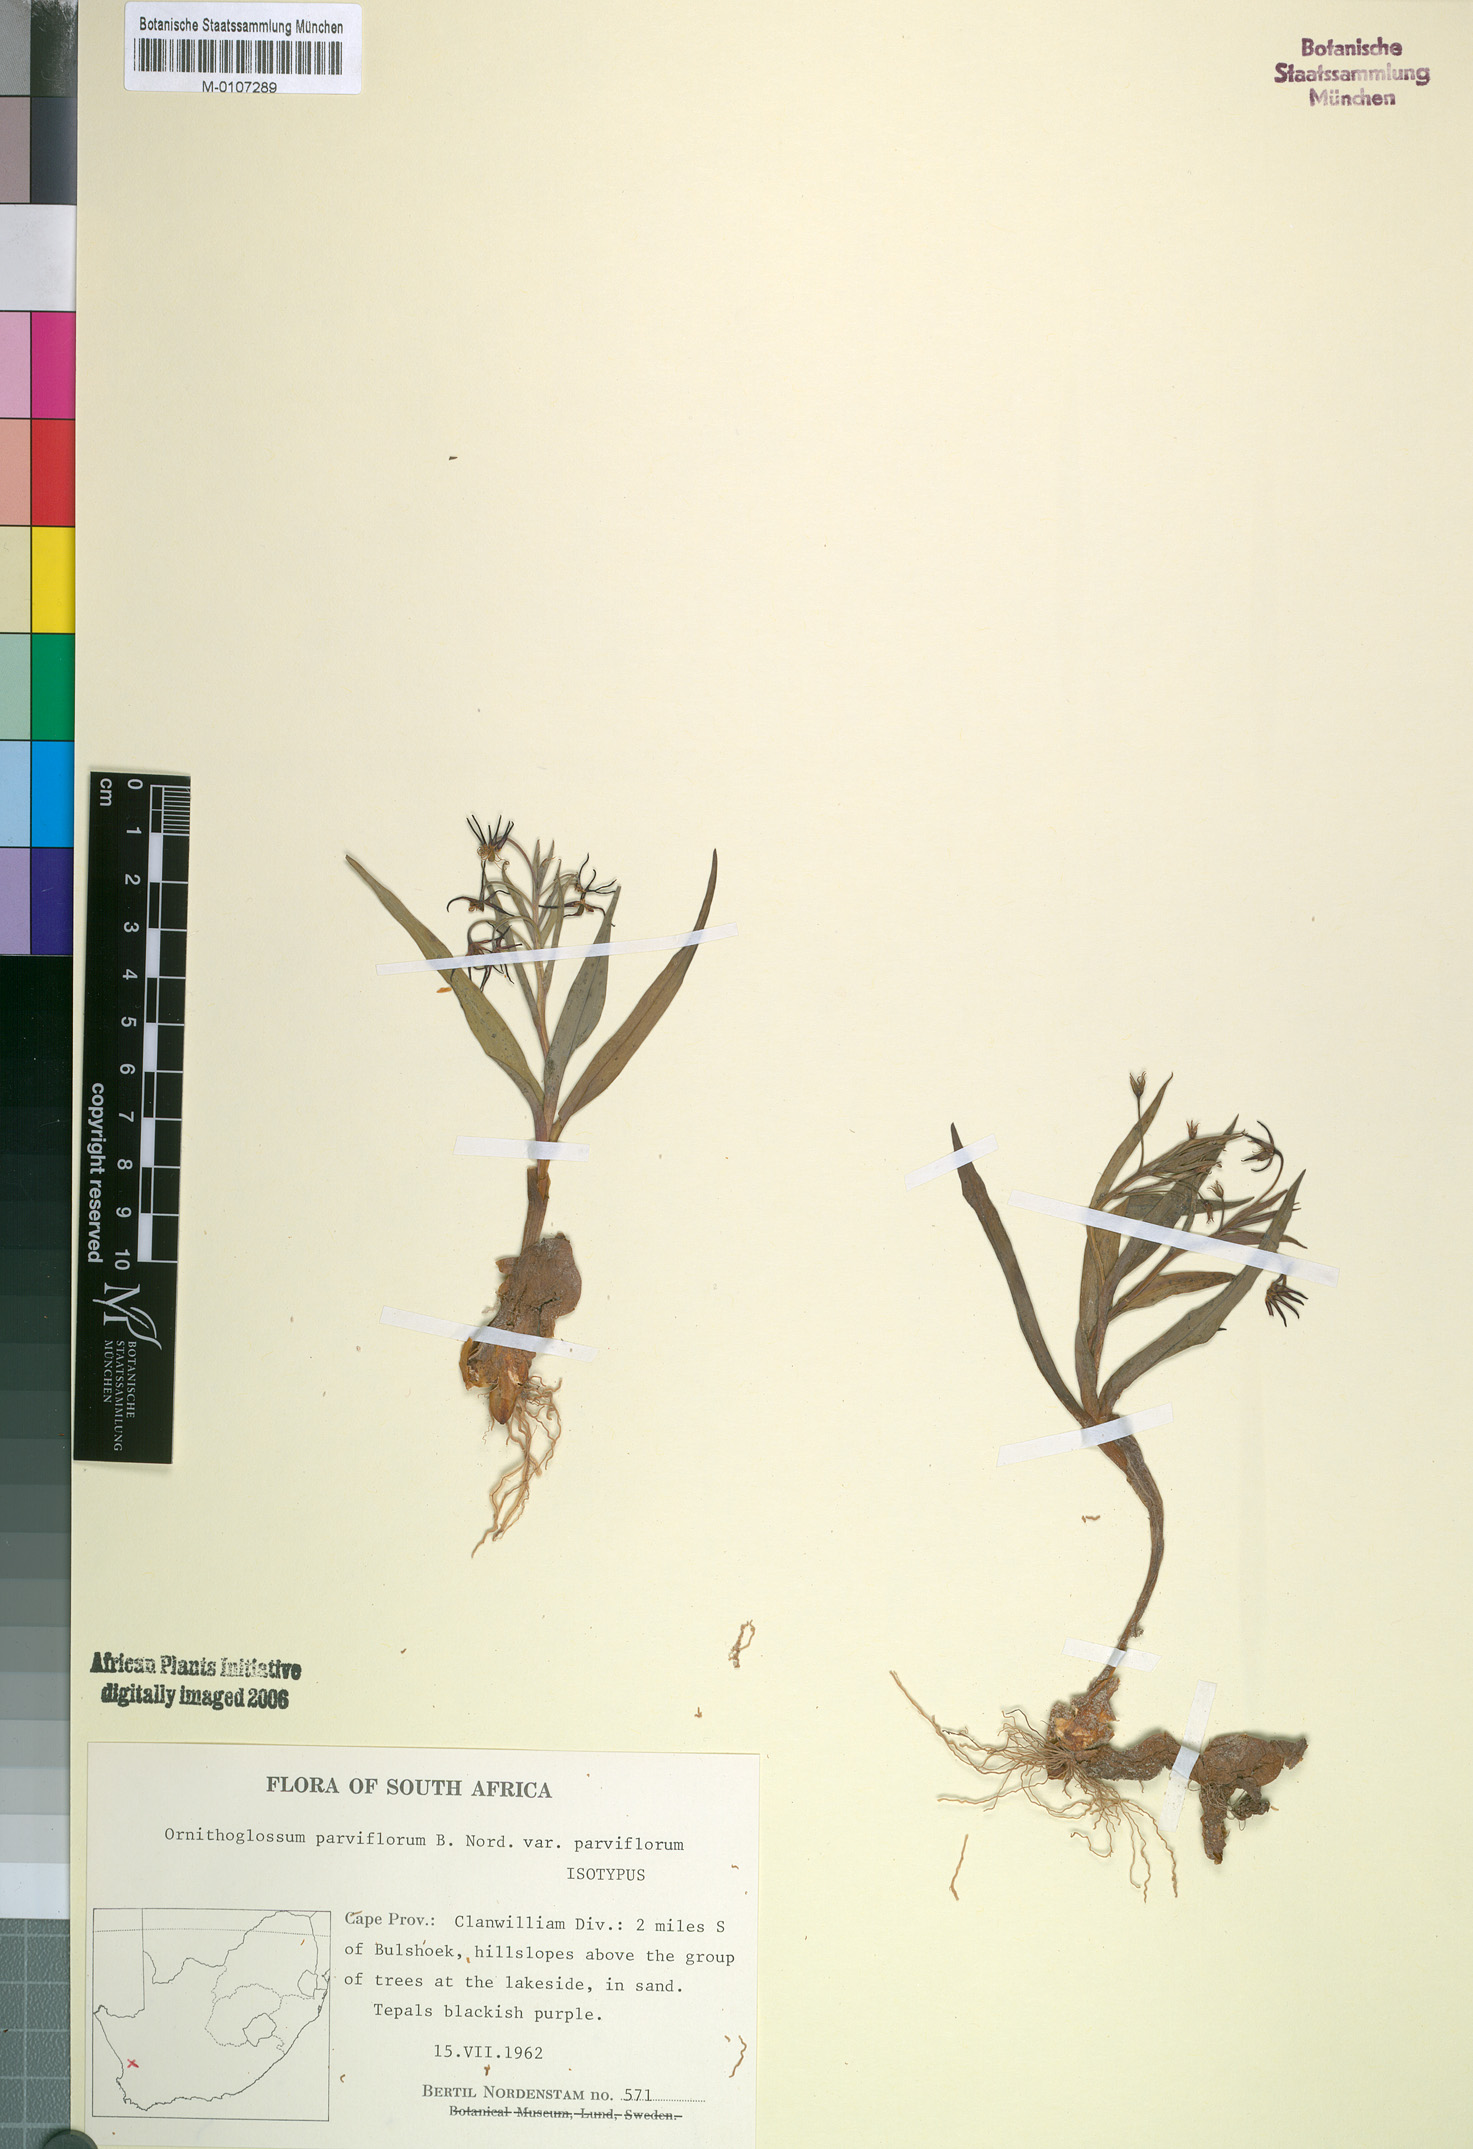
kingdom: Plantae
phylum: Tracheophyta
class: Liliopsida
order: Liliales
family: Colchicaceae
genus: Ornithoglossum
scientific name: Ornithoglossum parviflorum
